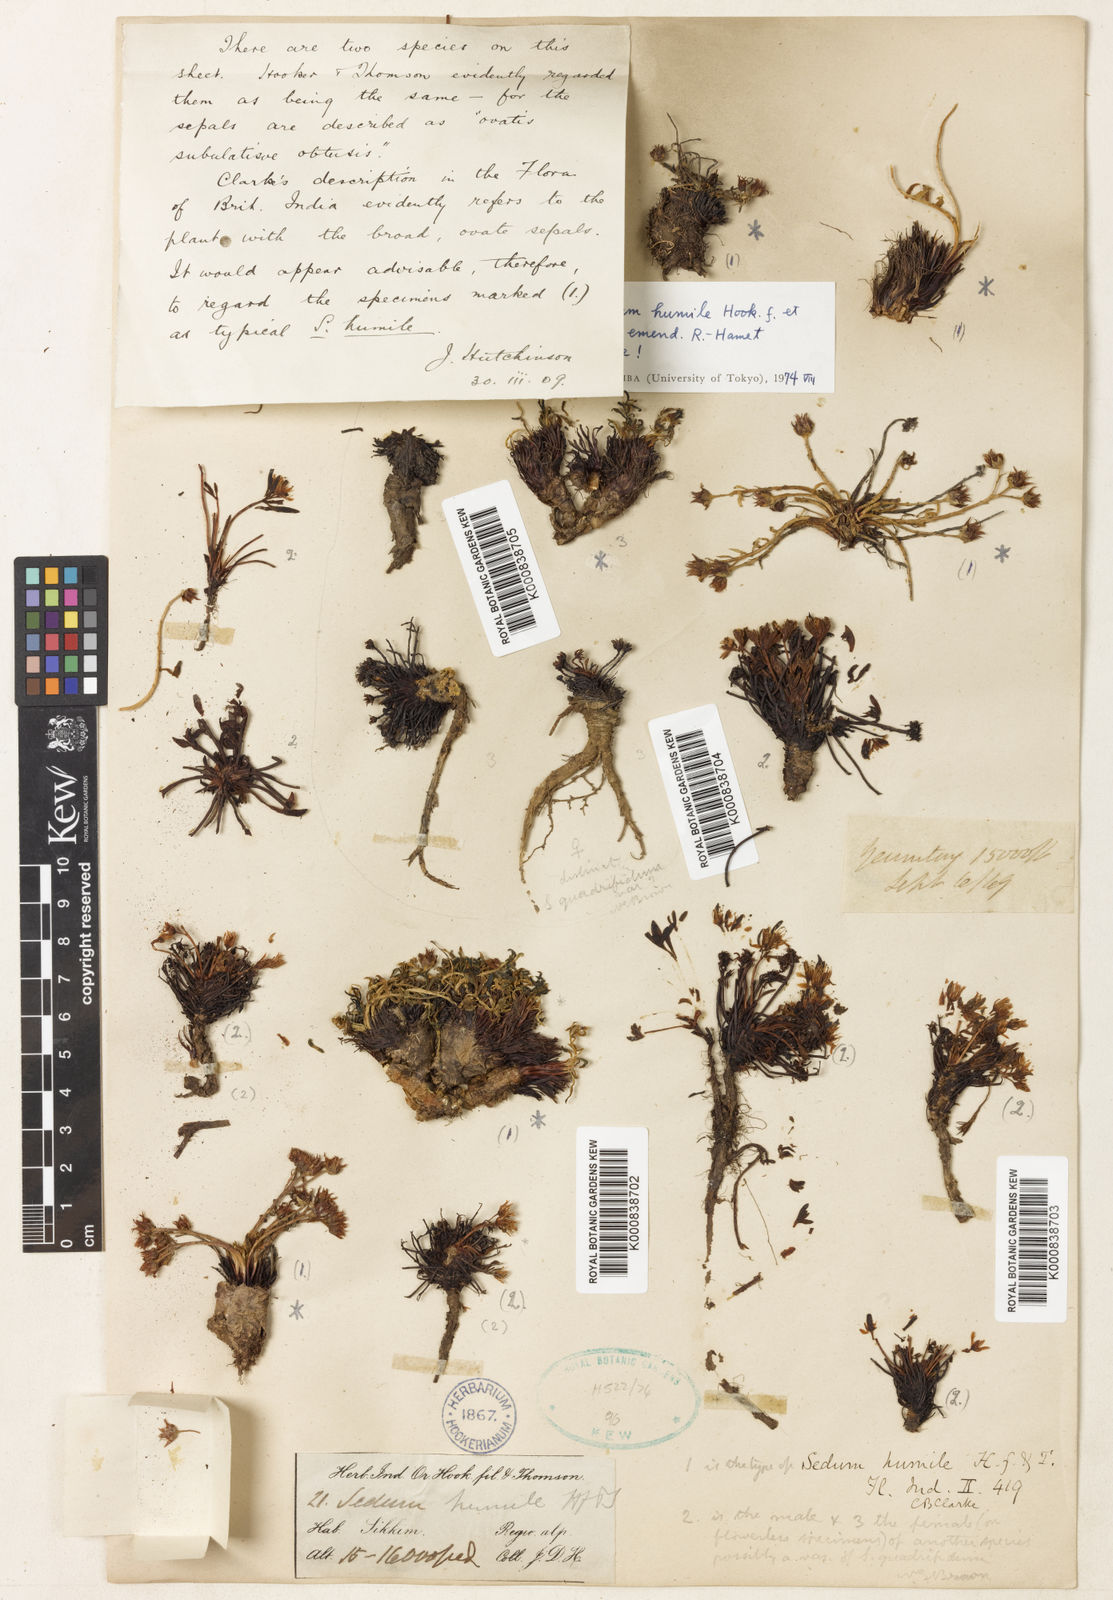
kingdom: Plantae
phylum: Tracheophyta
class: Magnoliopsida
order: Saxifragales
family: Crassulaceae
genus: Rhodiola
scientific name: Rhodiola humilis
